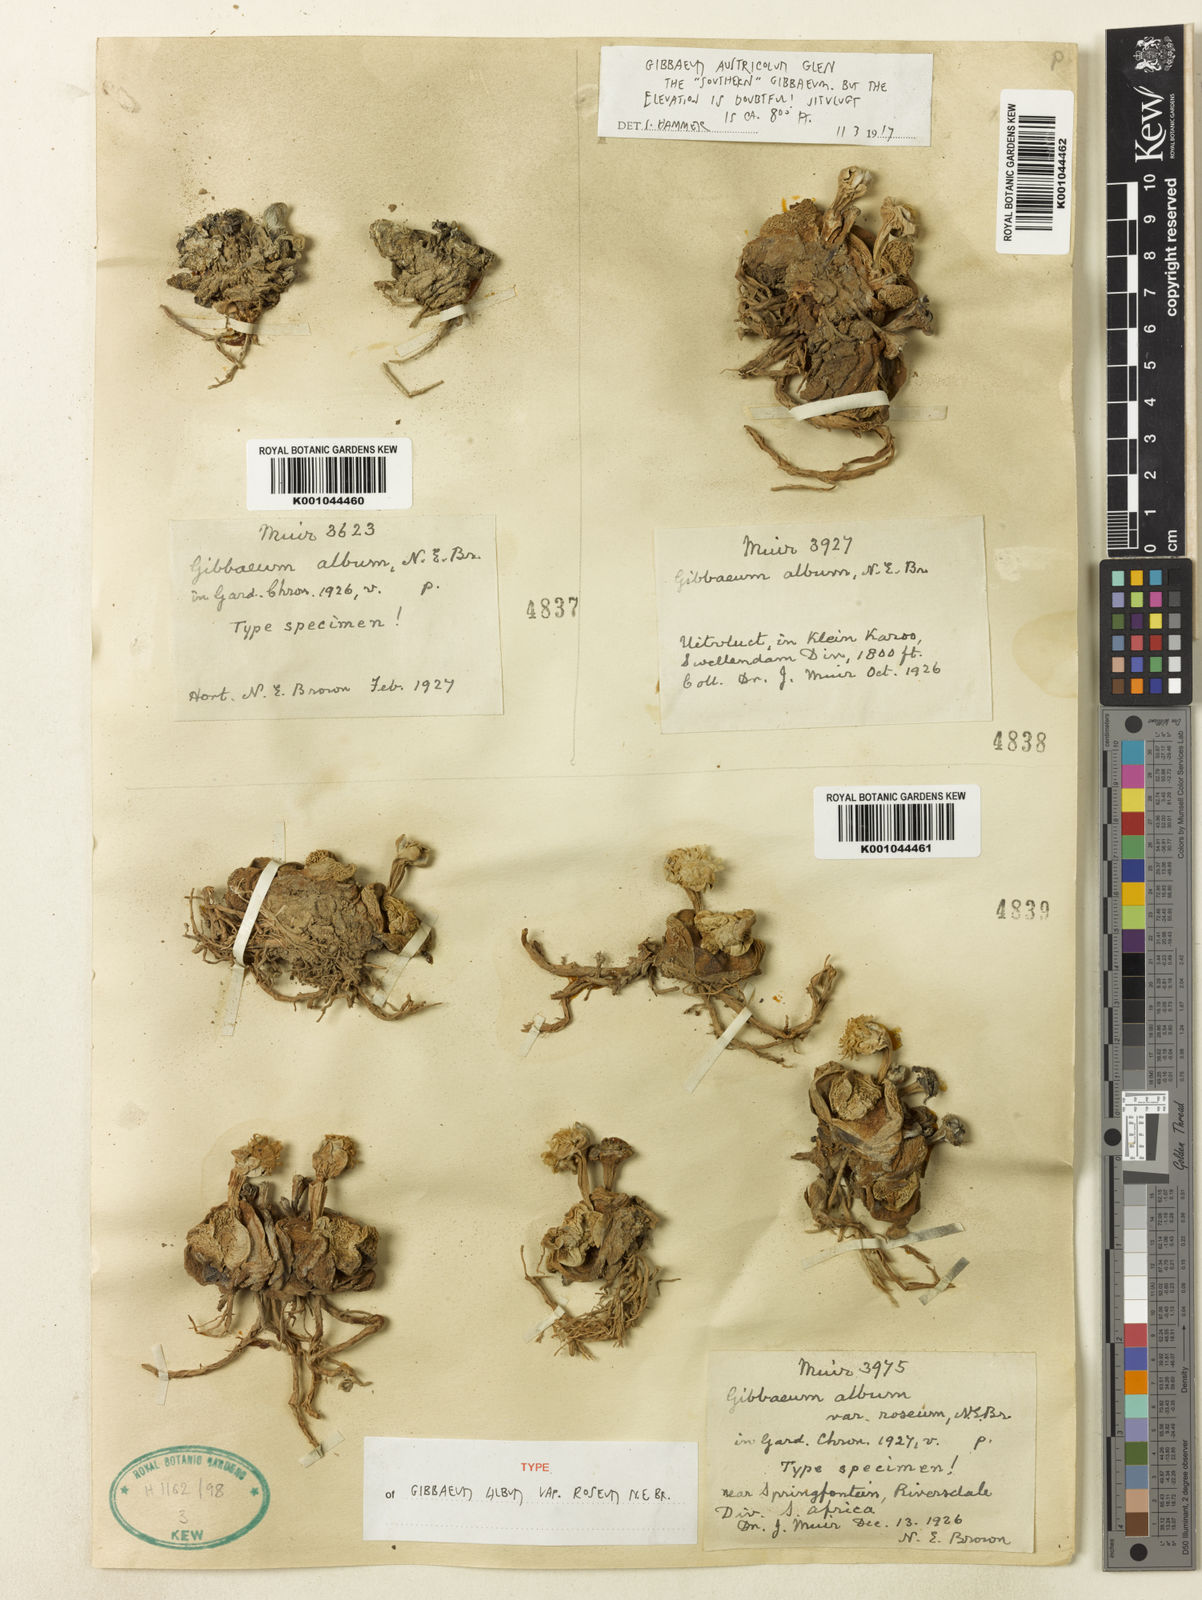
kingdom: Plantae
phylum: Tracheophyta
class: Magnoliopsida
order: Caryophyllales
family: Aizoaceae
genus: Gibbaeum
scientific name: Gibbaeum album
